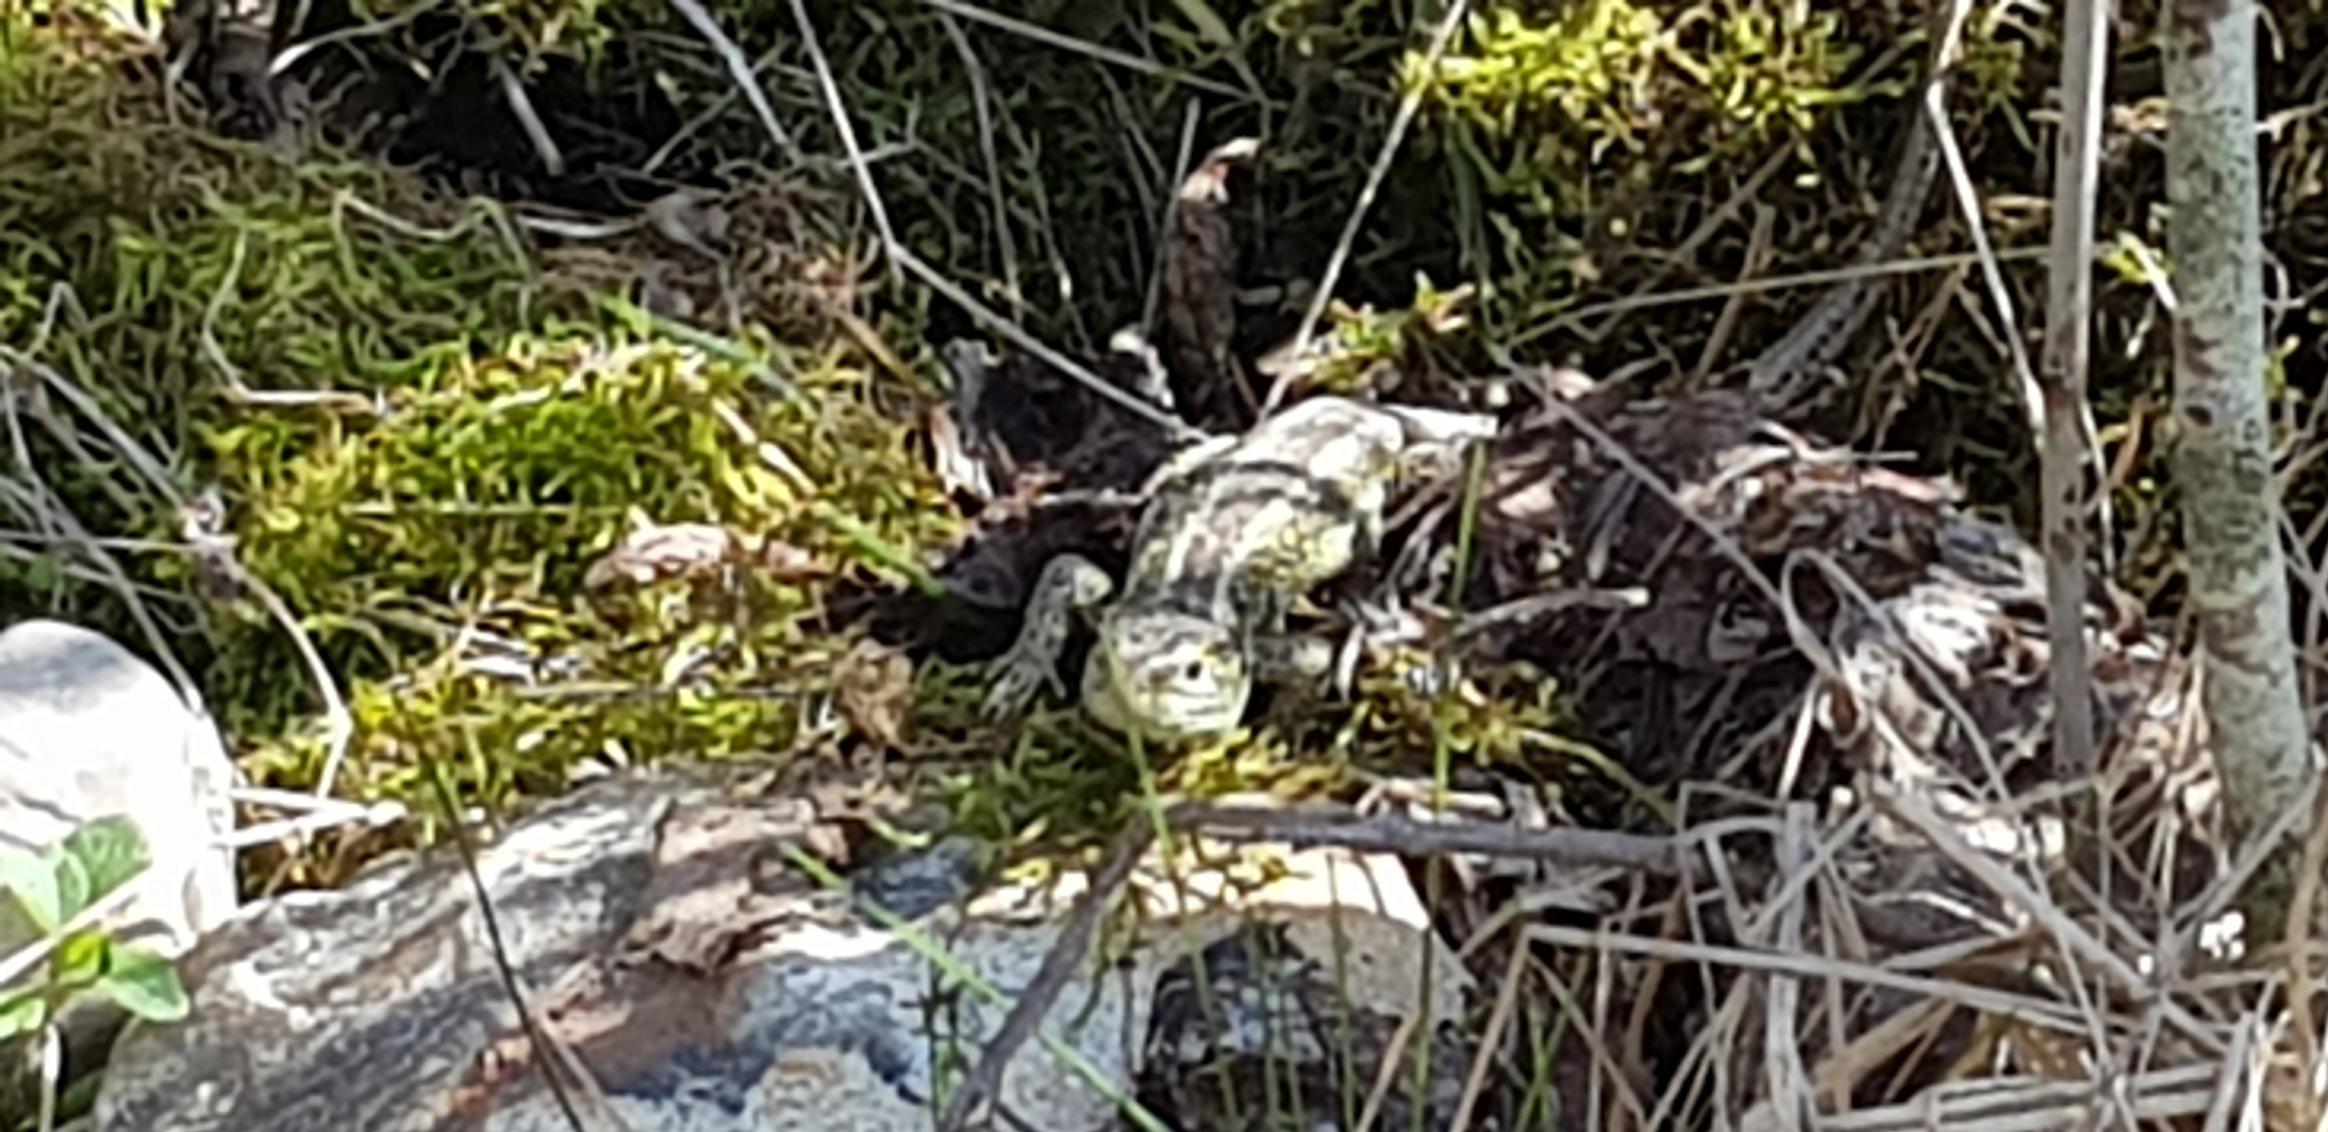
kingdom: Animalia
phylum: Chordata
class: Squamata
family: Lacertidae
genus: Lacerta
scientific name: Lacerta agilis
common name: Markfirben
